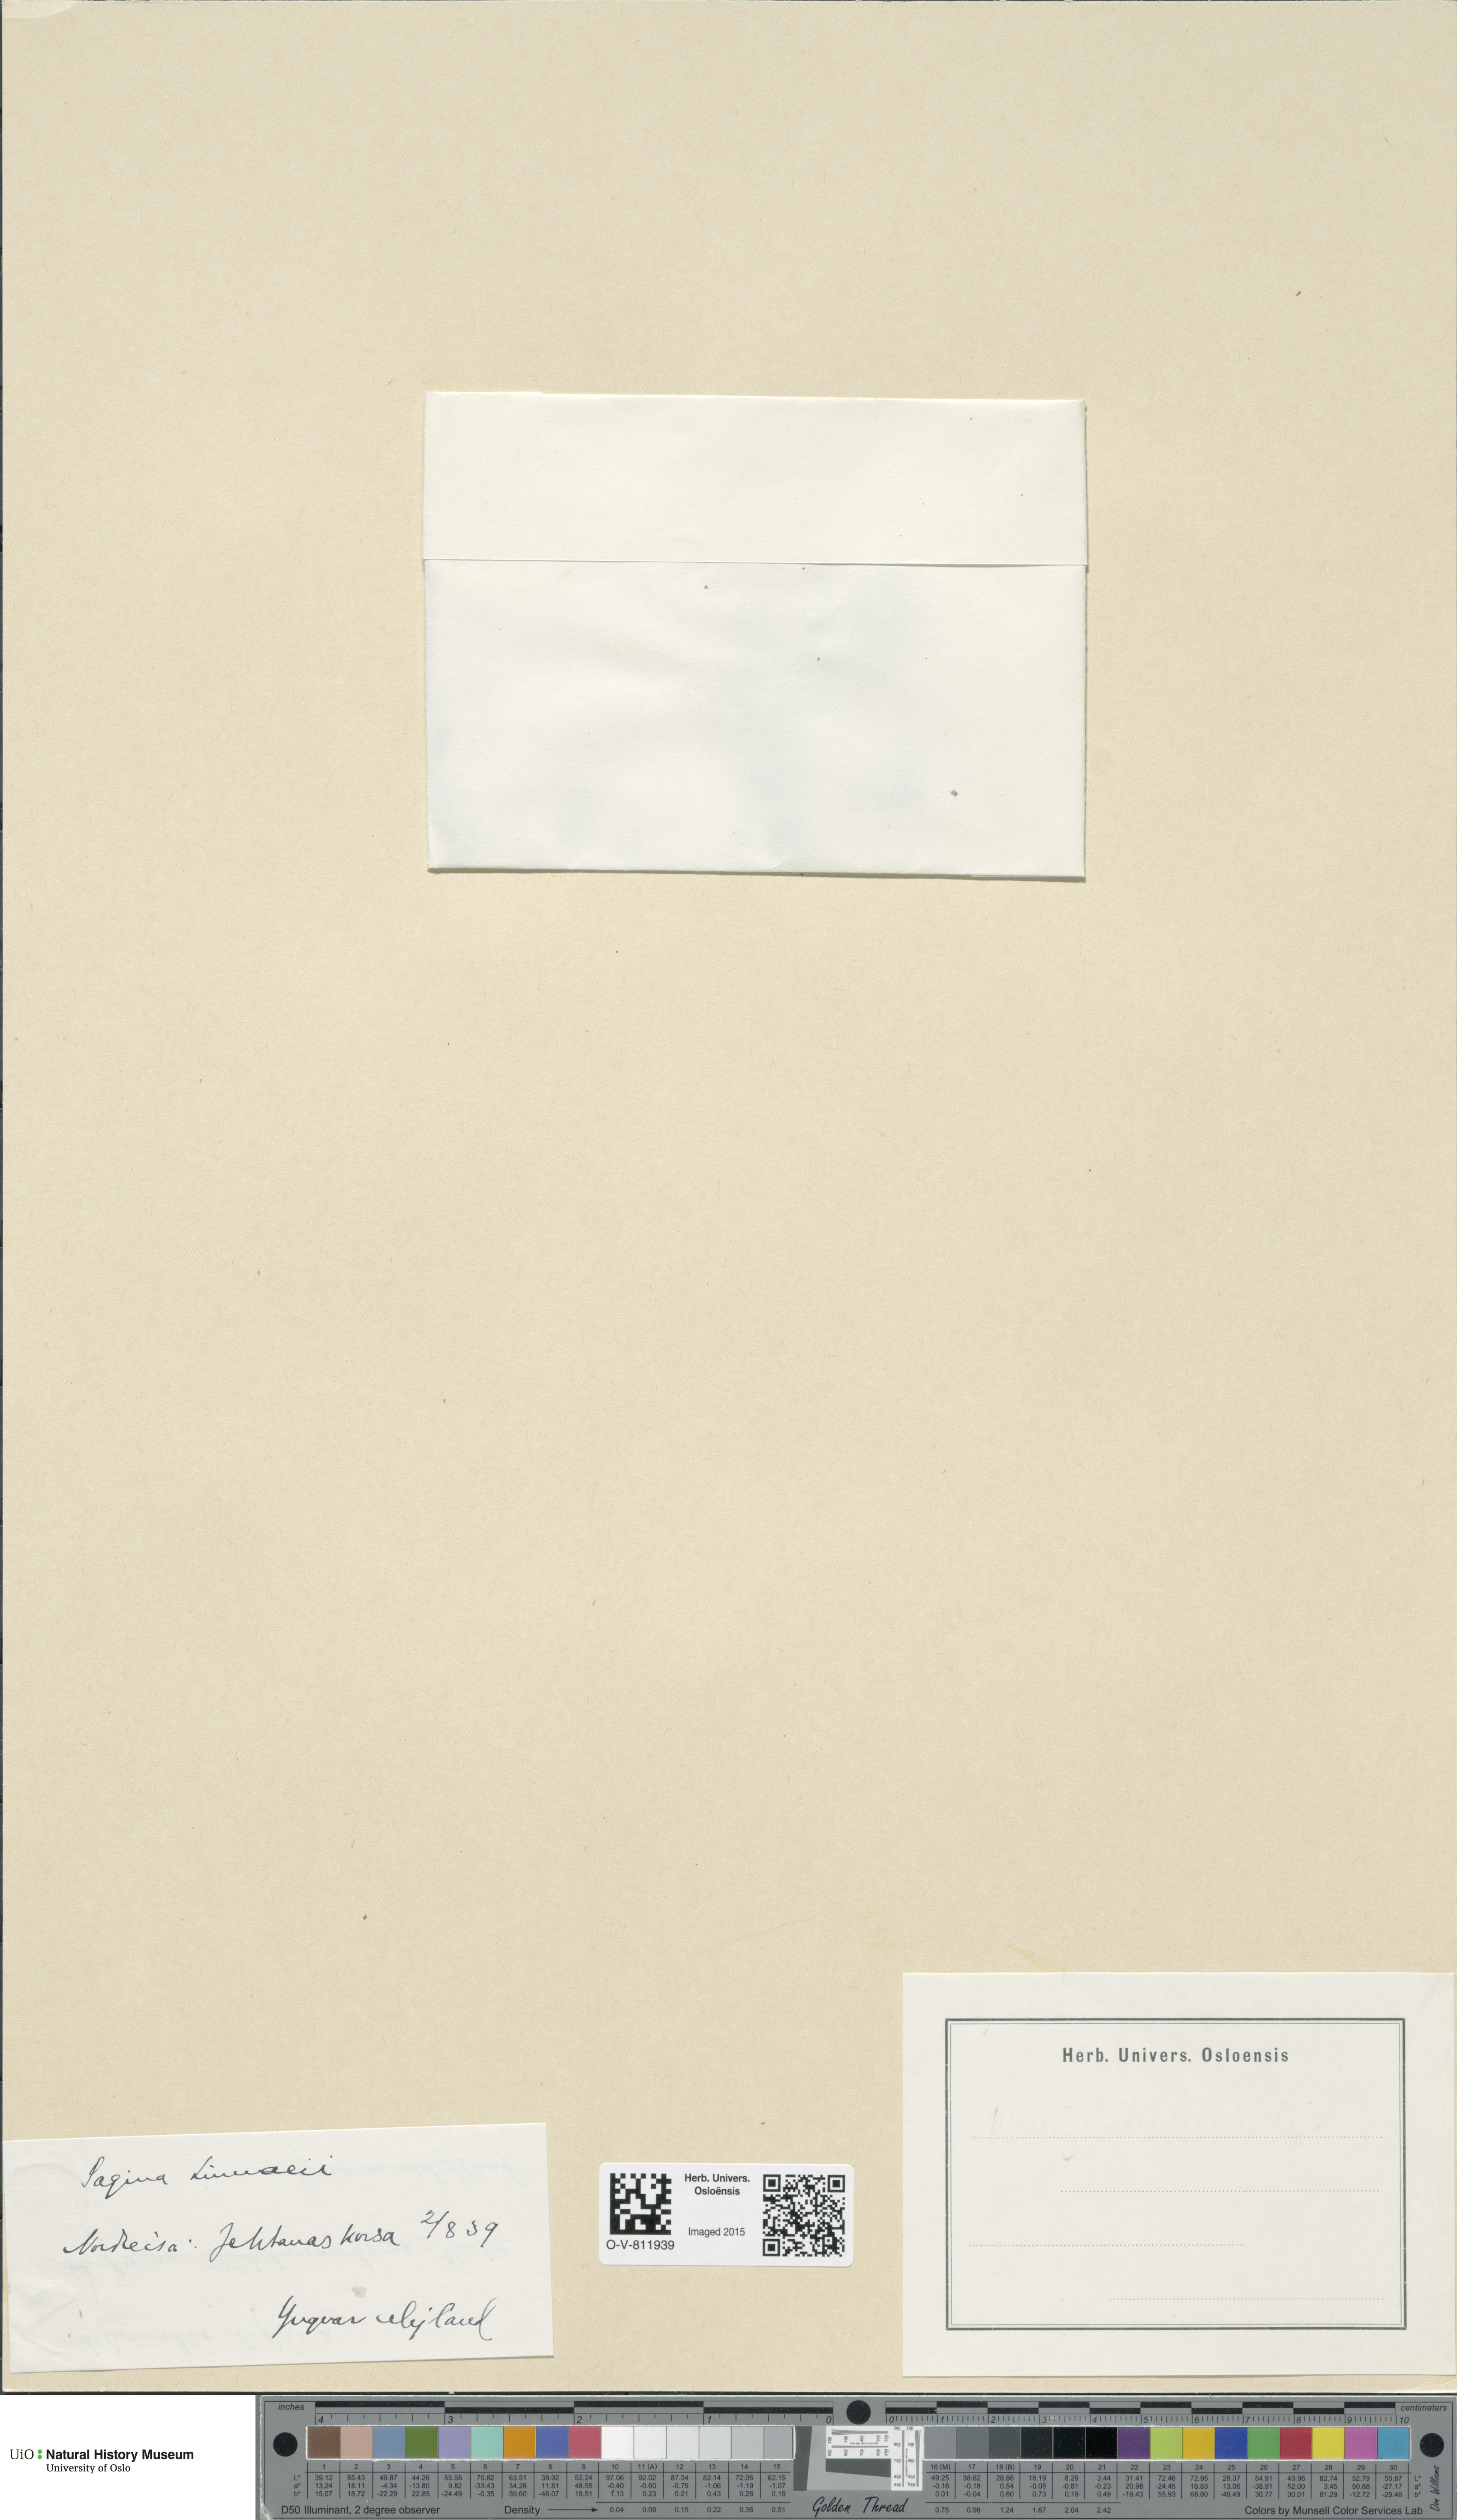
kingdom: Plantae
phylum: Tracheophyta
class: Magnoliopsida
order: Caryophyllales
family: Caryophyllaceae
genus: Sagina
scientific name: Sagina saginoides
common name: Alpine pearlwort
